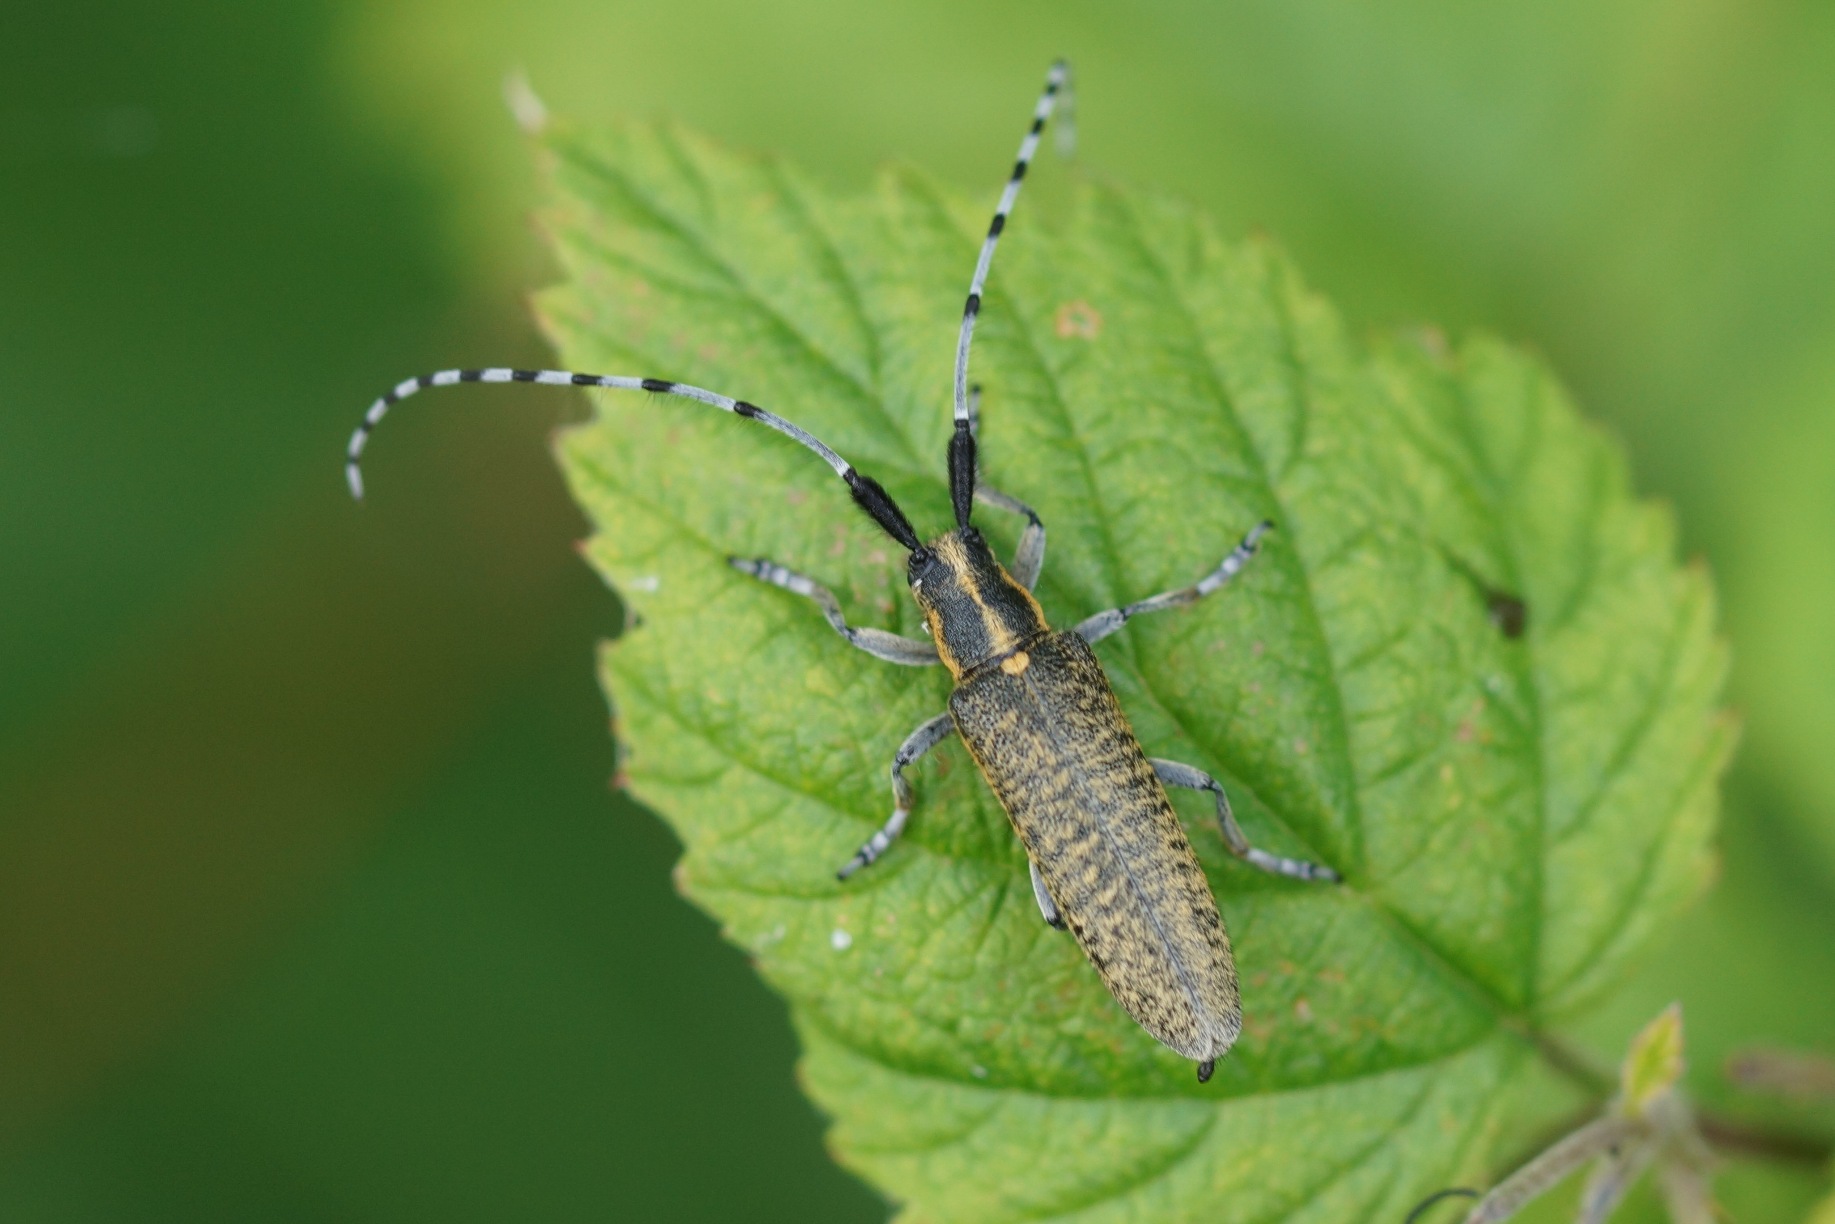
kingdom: Animalia
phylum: Arthropoda
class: Insecta
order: Coleoptera
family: Cerambycidae
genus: Agapanthia
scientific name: Agapanthia villosoviridescens
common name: Tidselbuk
